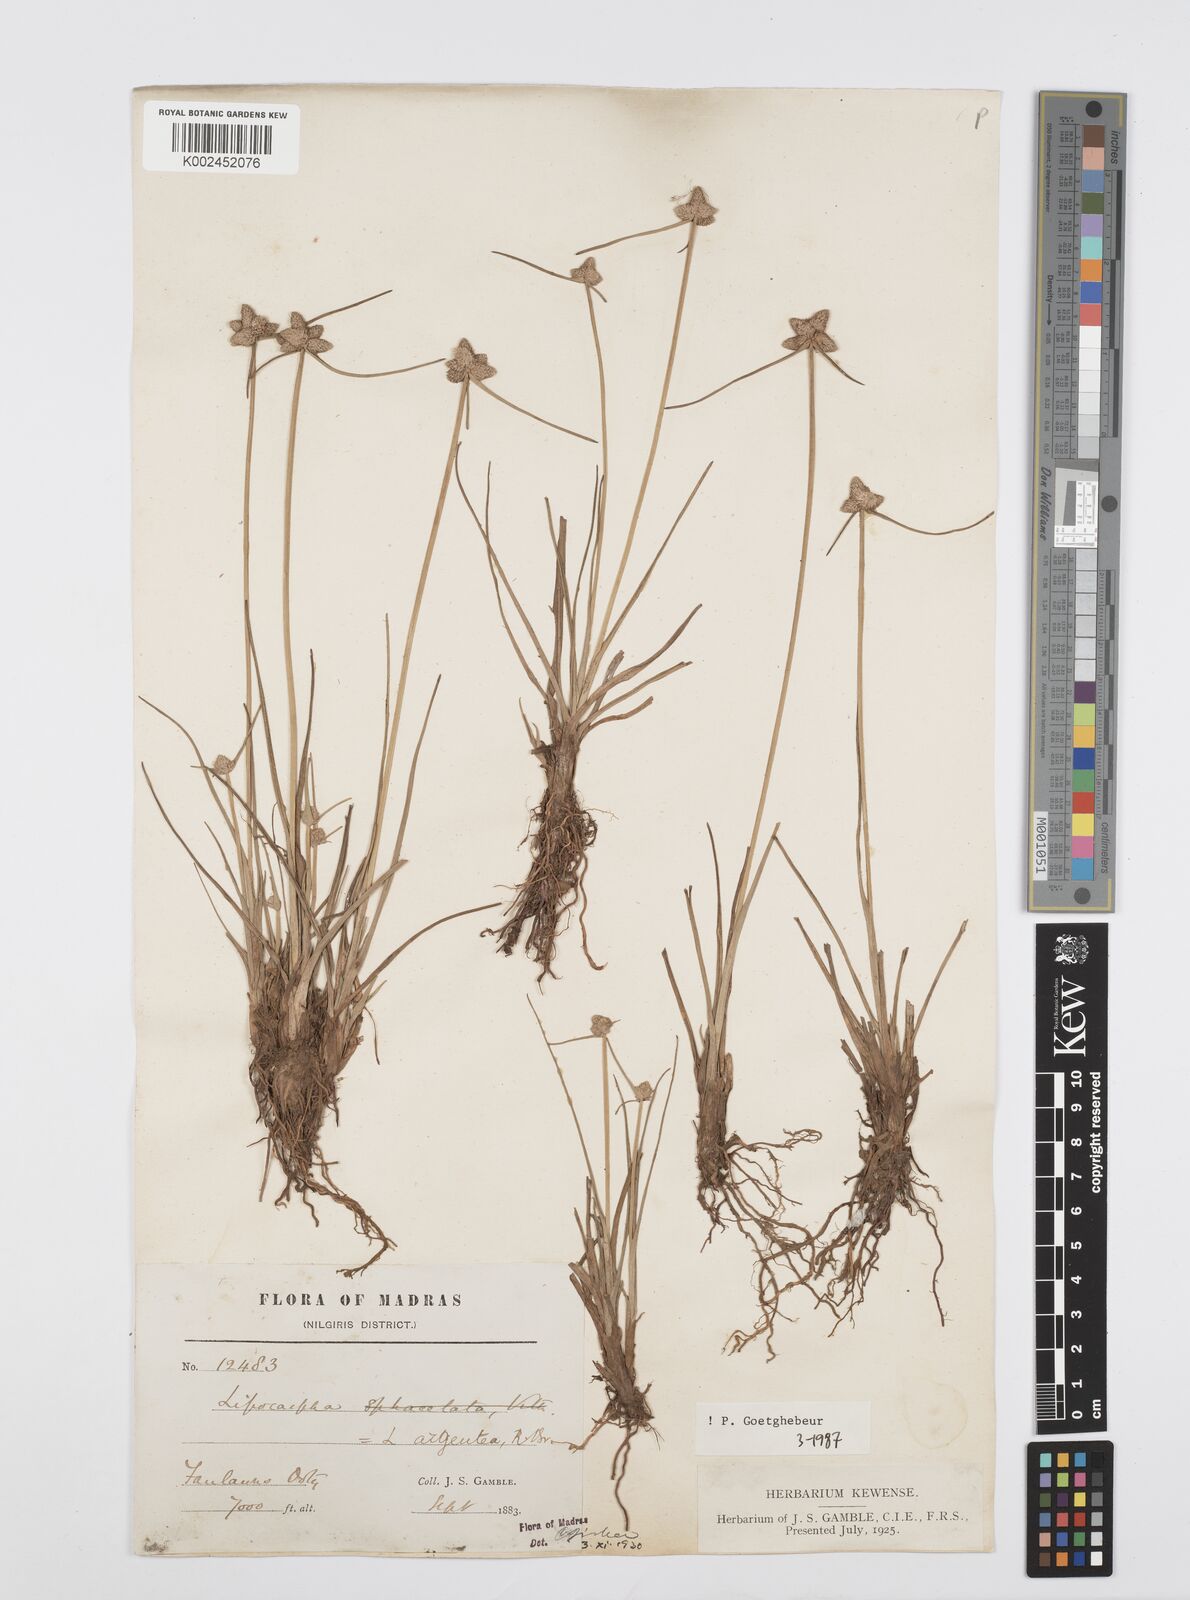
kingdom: Plantae
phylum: Tracheophyta
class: Liliopsida
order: Poales
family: Cyperaceae
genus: Cyperus
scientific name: Cyperus
